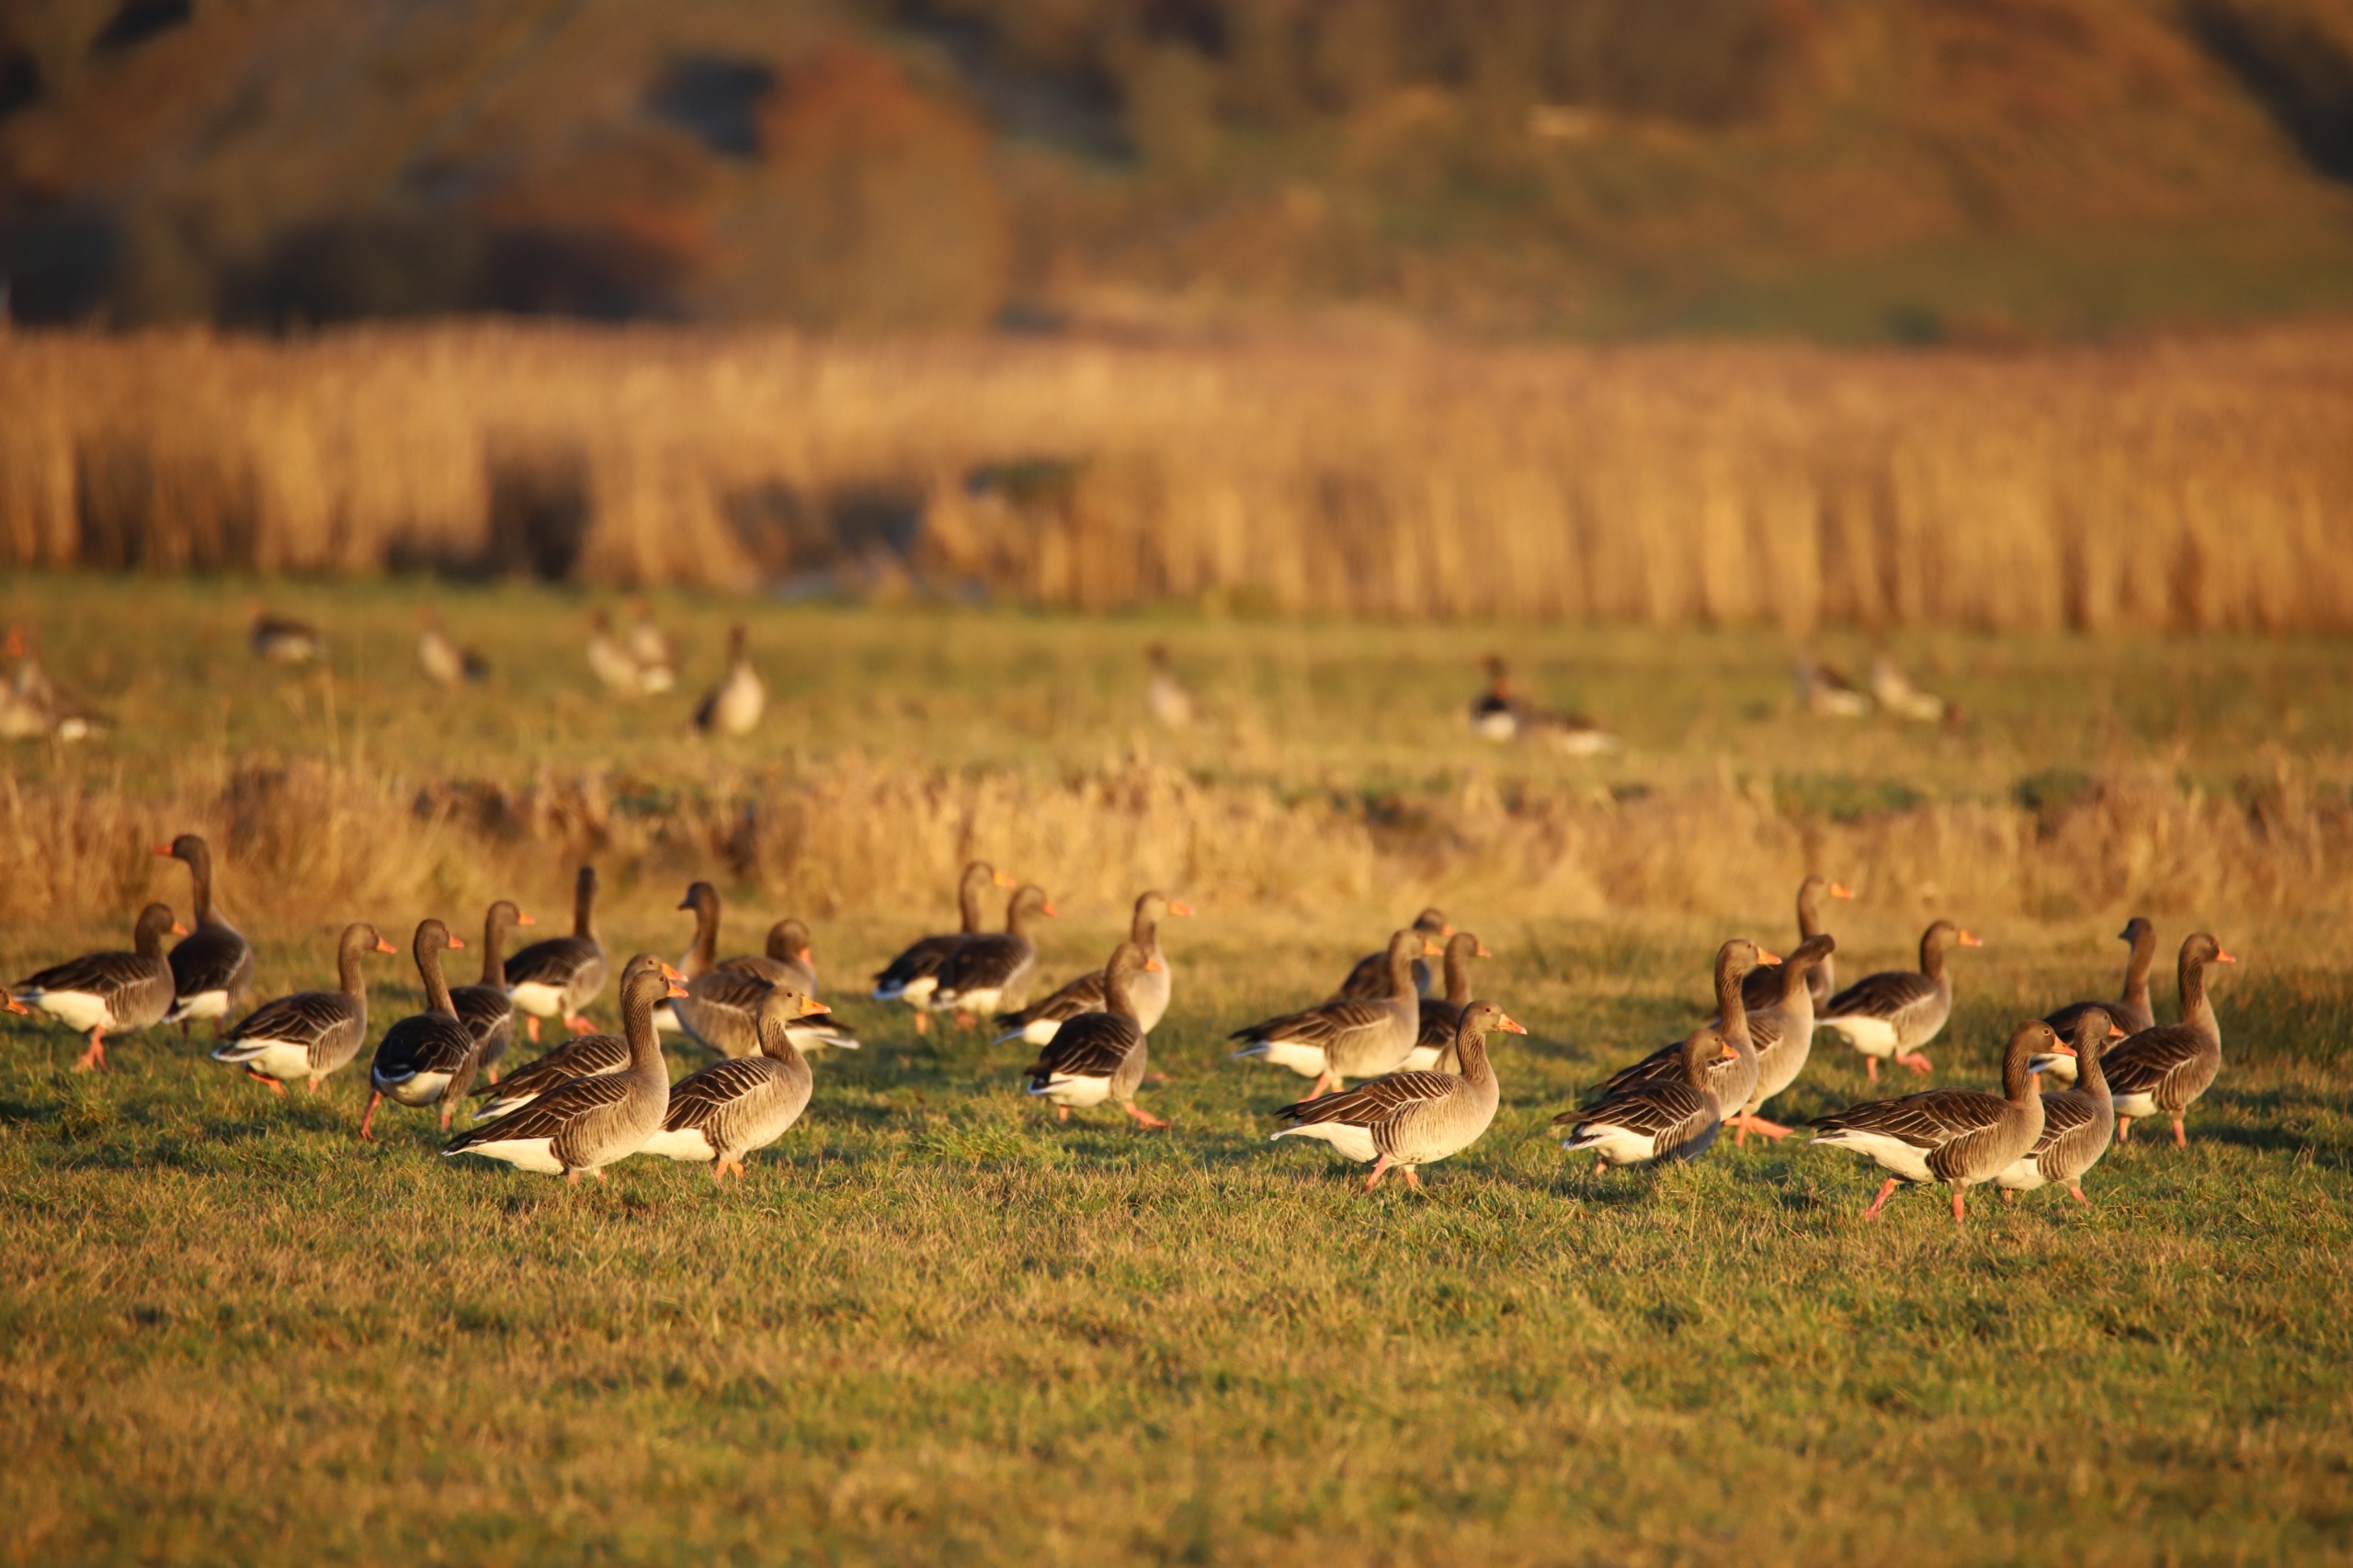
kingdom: Animalia
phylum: Chordata
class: Aves
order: Anseriformes
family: Anatidae
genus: Anser
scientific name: Anser anser
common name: Grågås
